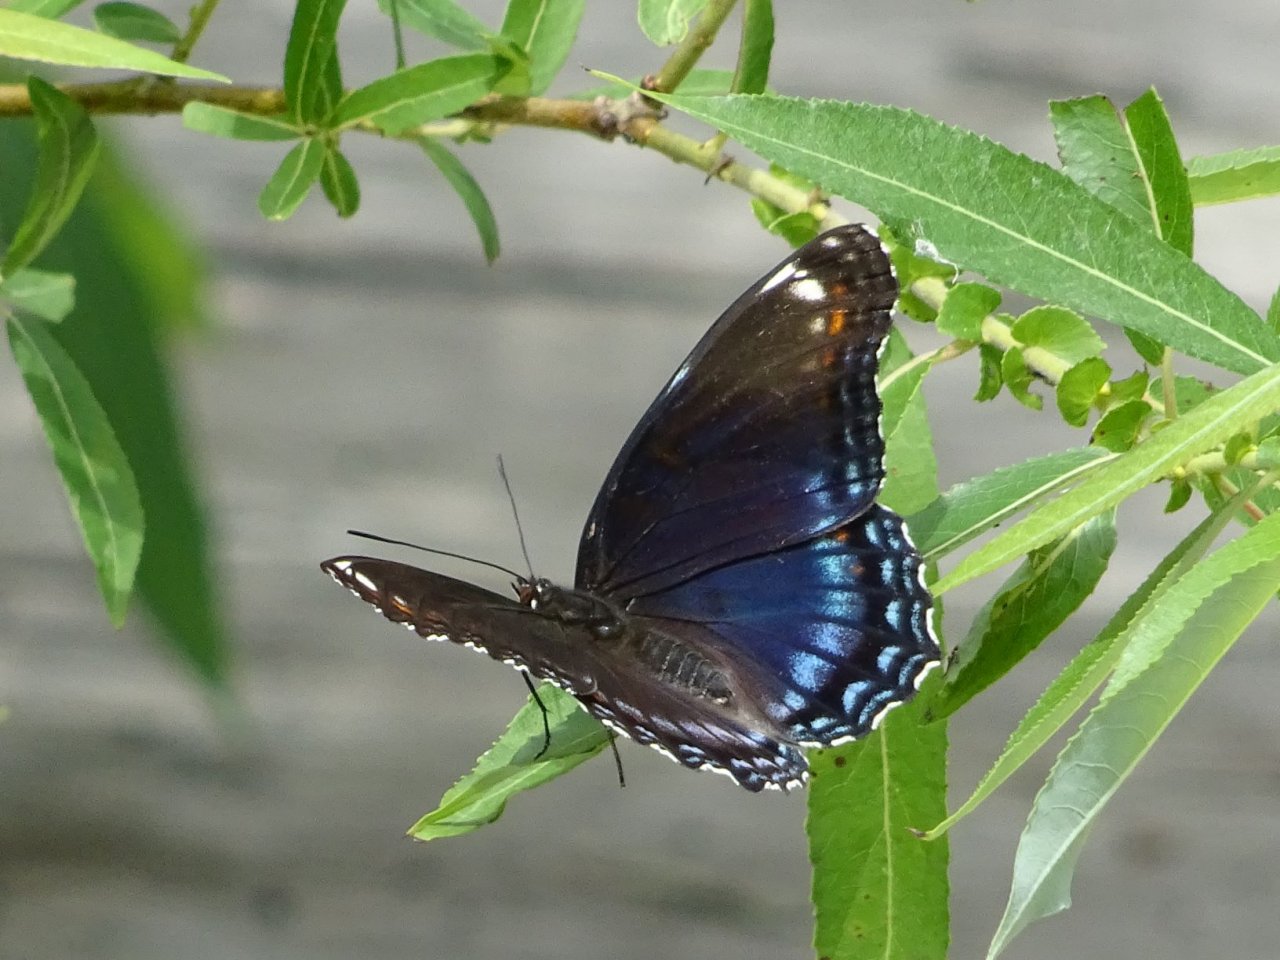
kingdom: Animalia
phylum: Arthropoda
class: Insecta
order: Lepidoptera
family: Nymphalidae
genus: Limenitis
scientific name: Limenitis astyanax
